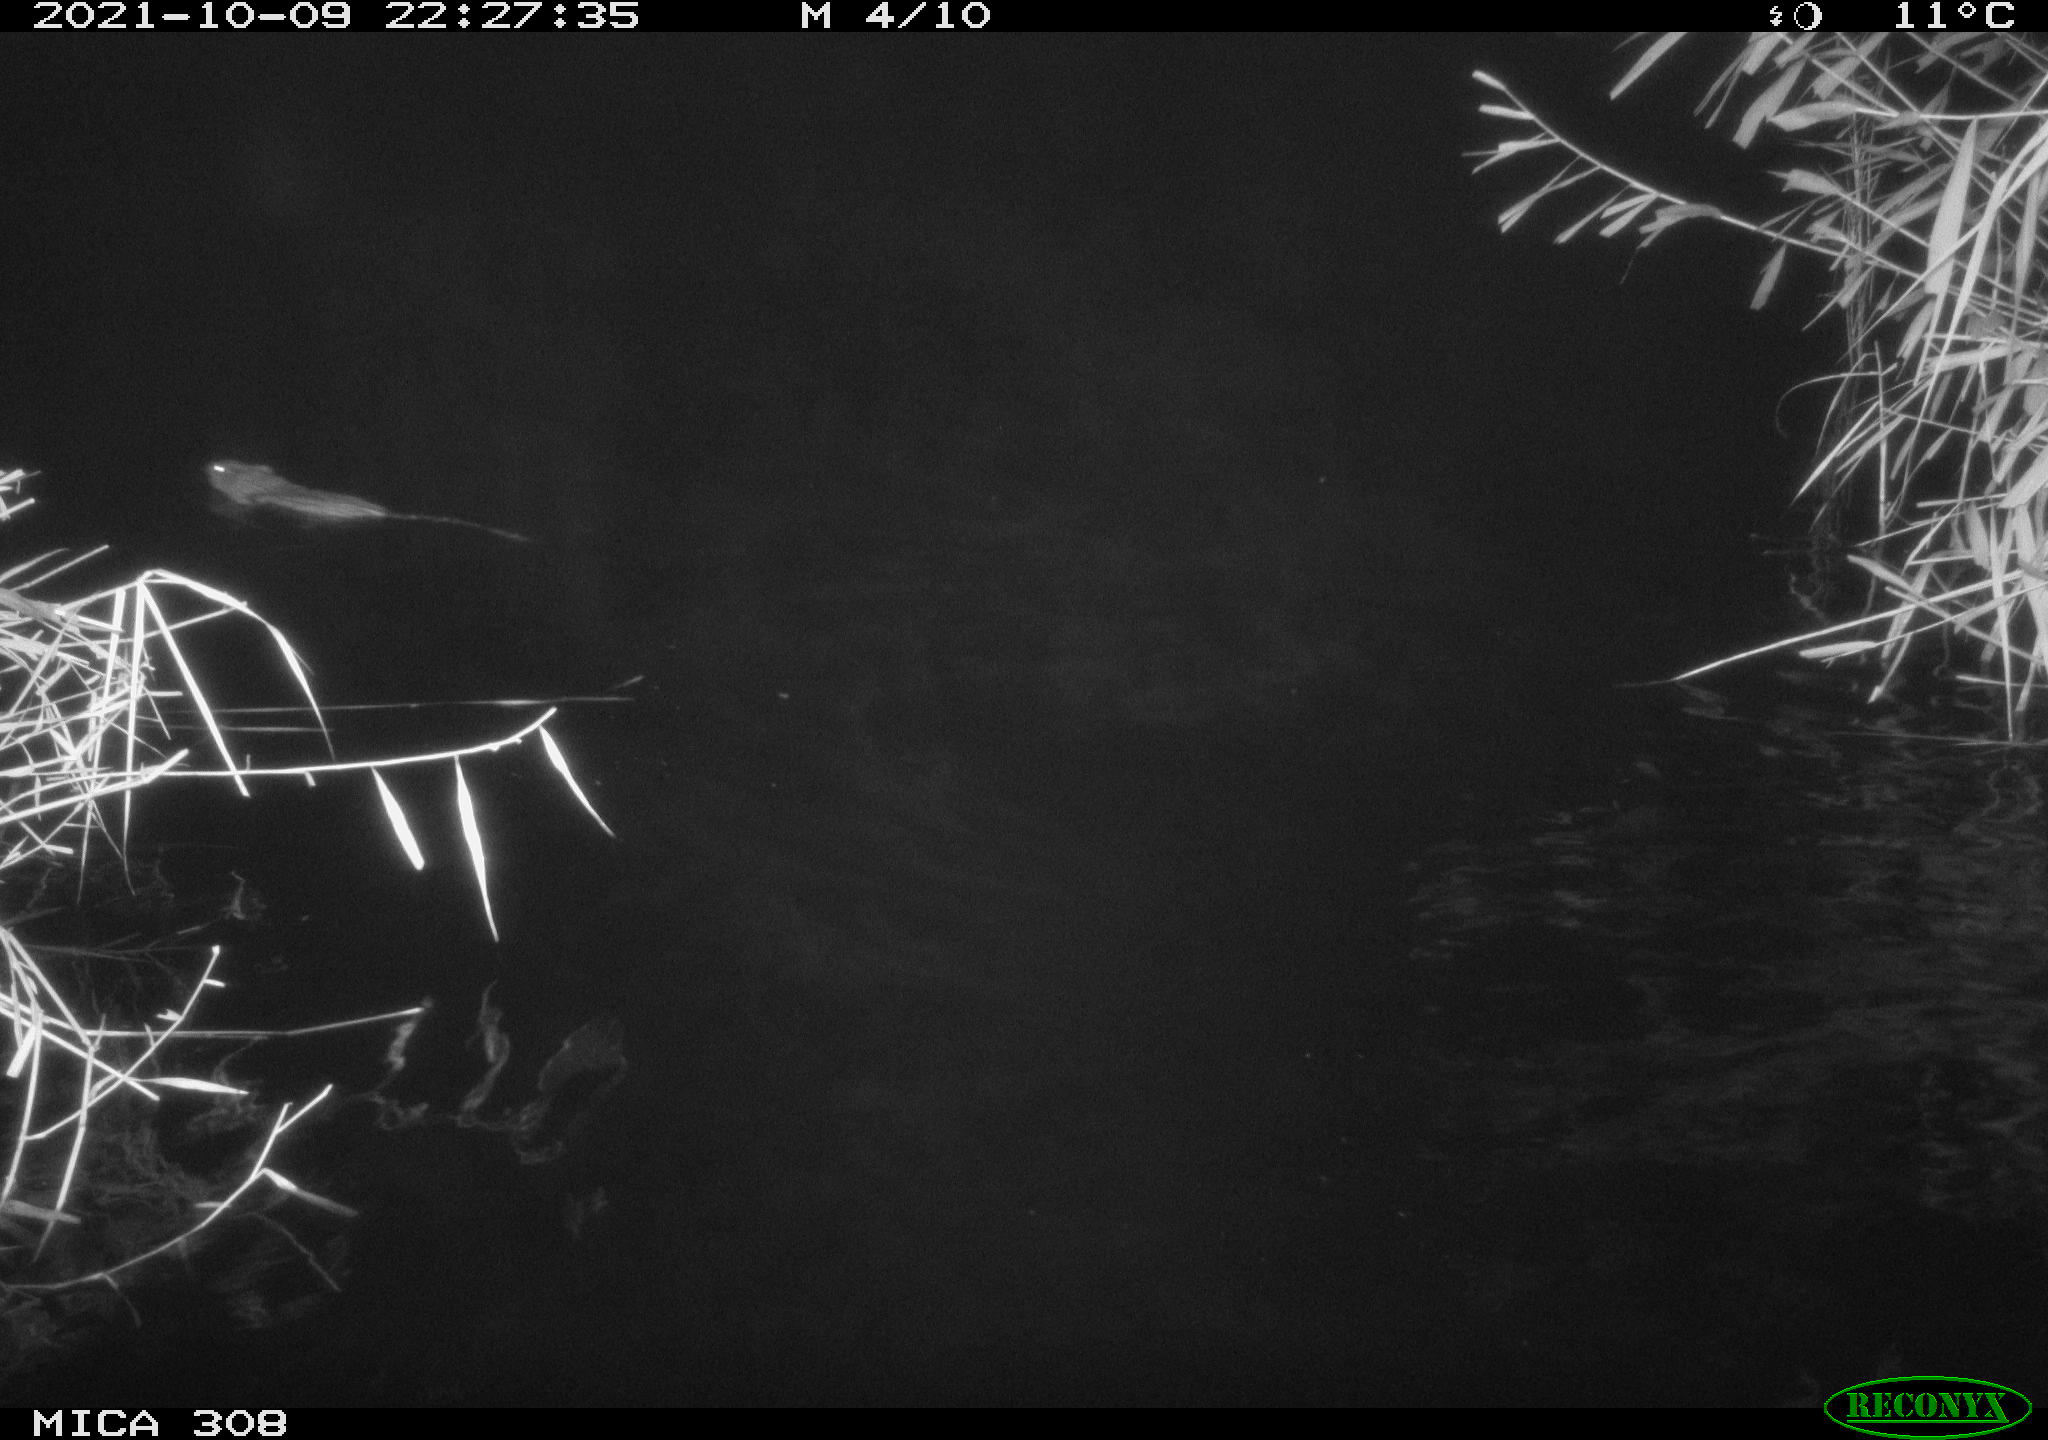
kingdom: Animalia
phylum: Chordata
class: Mammalia
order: Rodentia
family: Cricetidae
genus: Ondatra
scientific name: Ondatra zibethicus
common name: Muskrat
